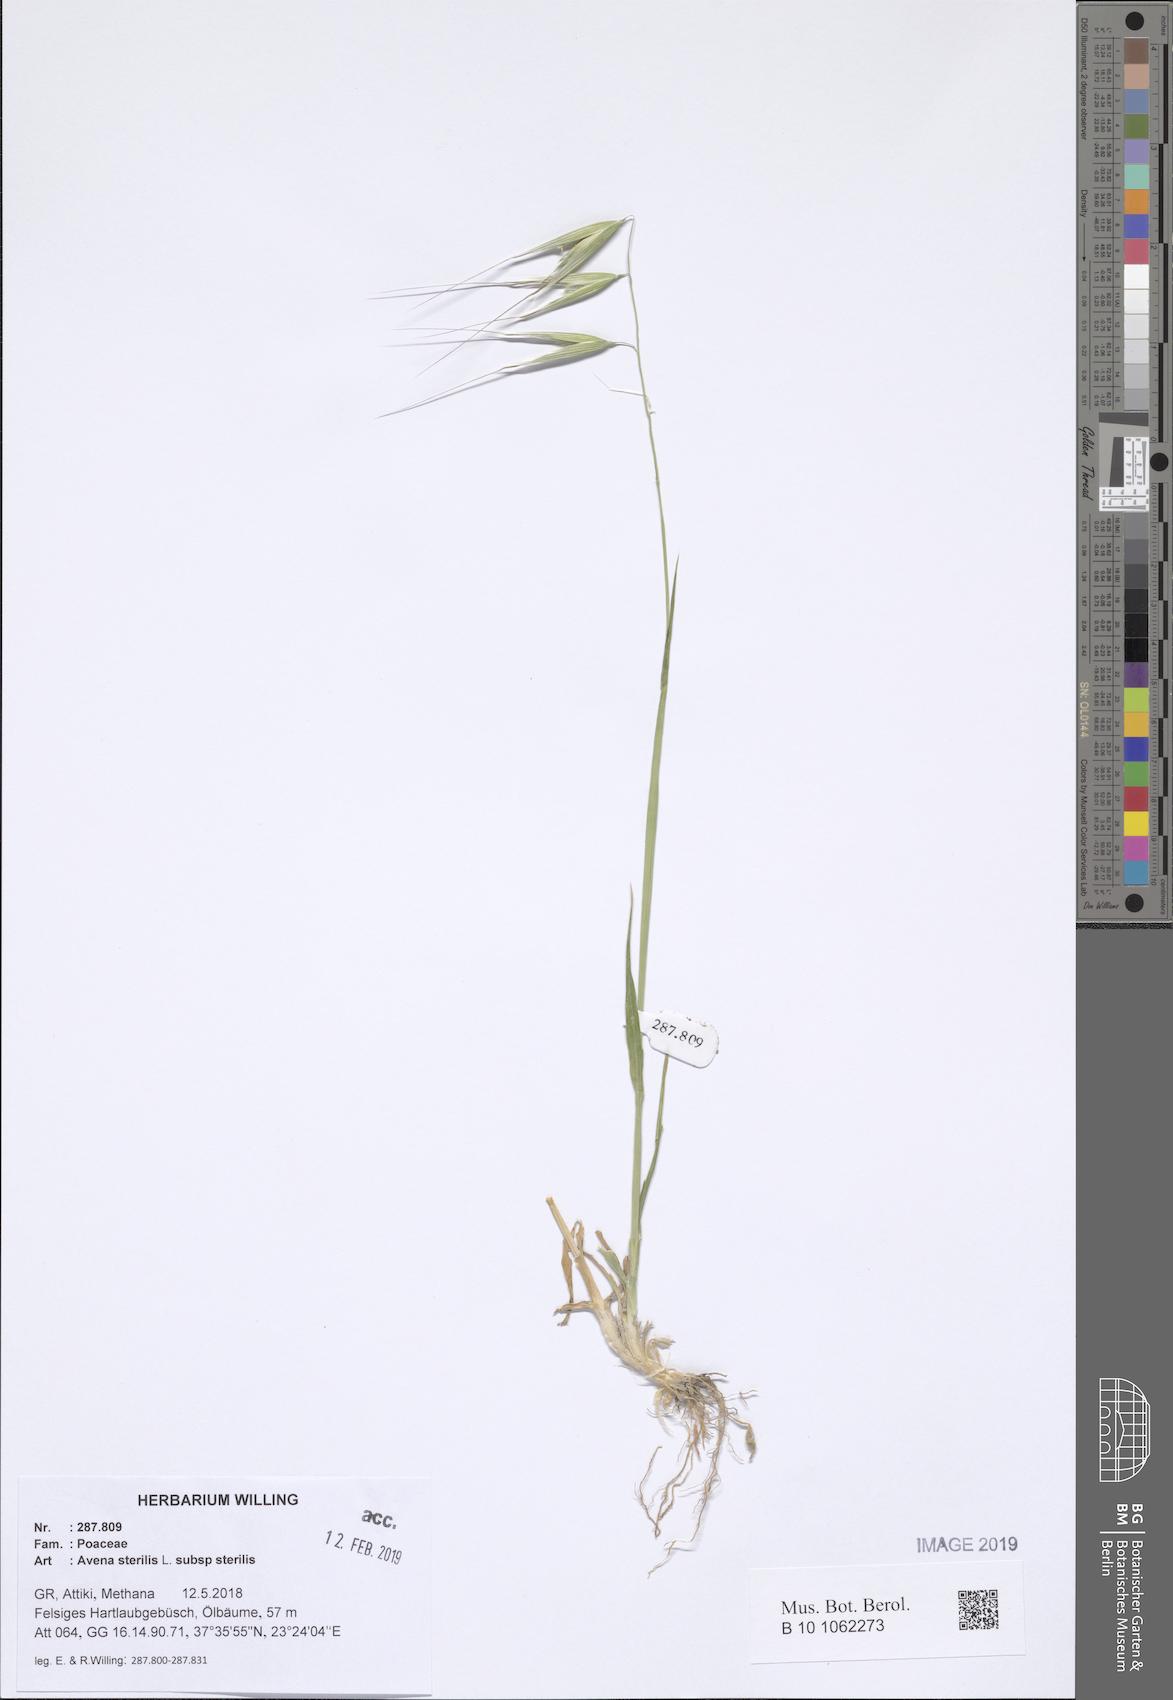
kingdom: Plantae
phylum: Tracheophyta
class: Liliopsida
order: Poales
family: Poaceae
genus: Avena
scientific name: Avena sterilis
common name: Animated oat
